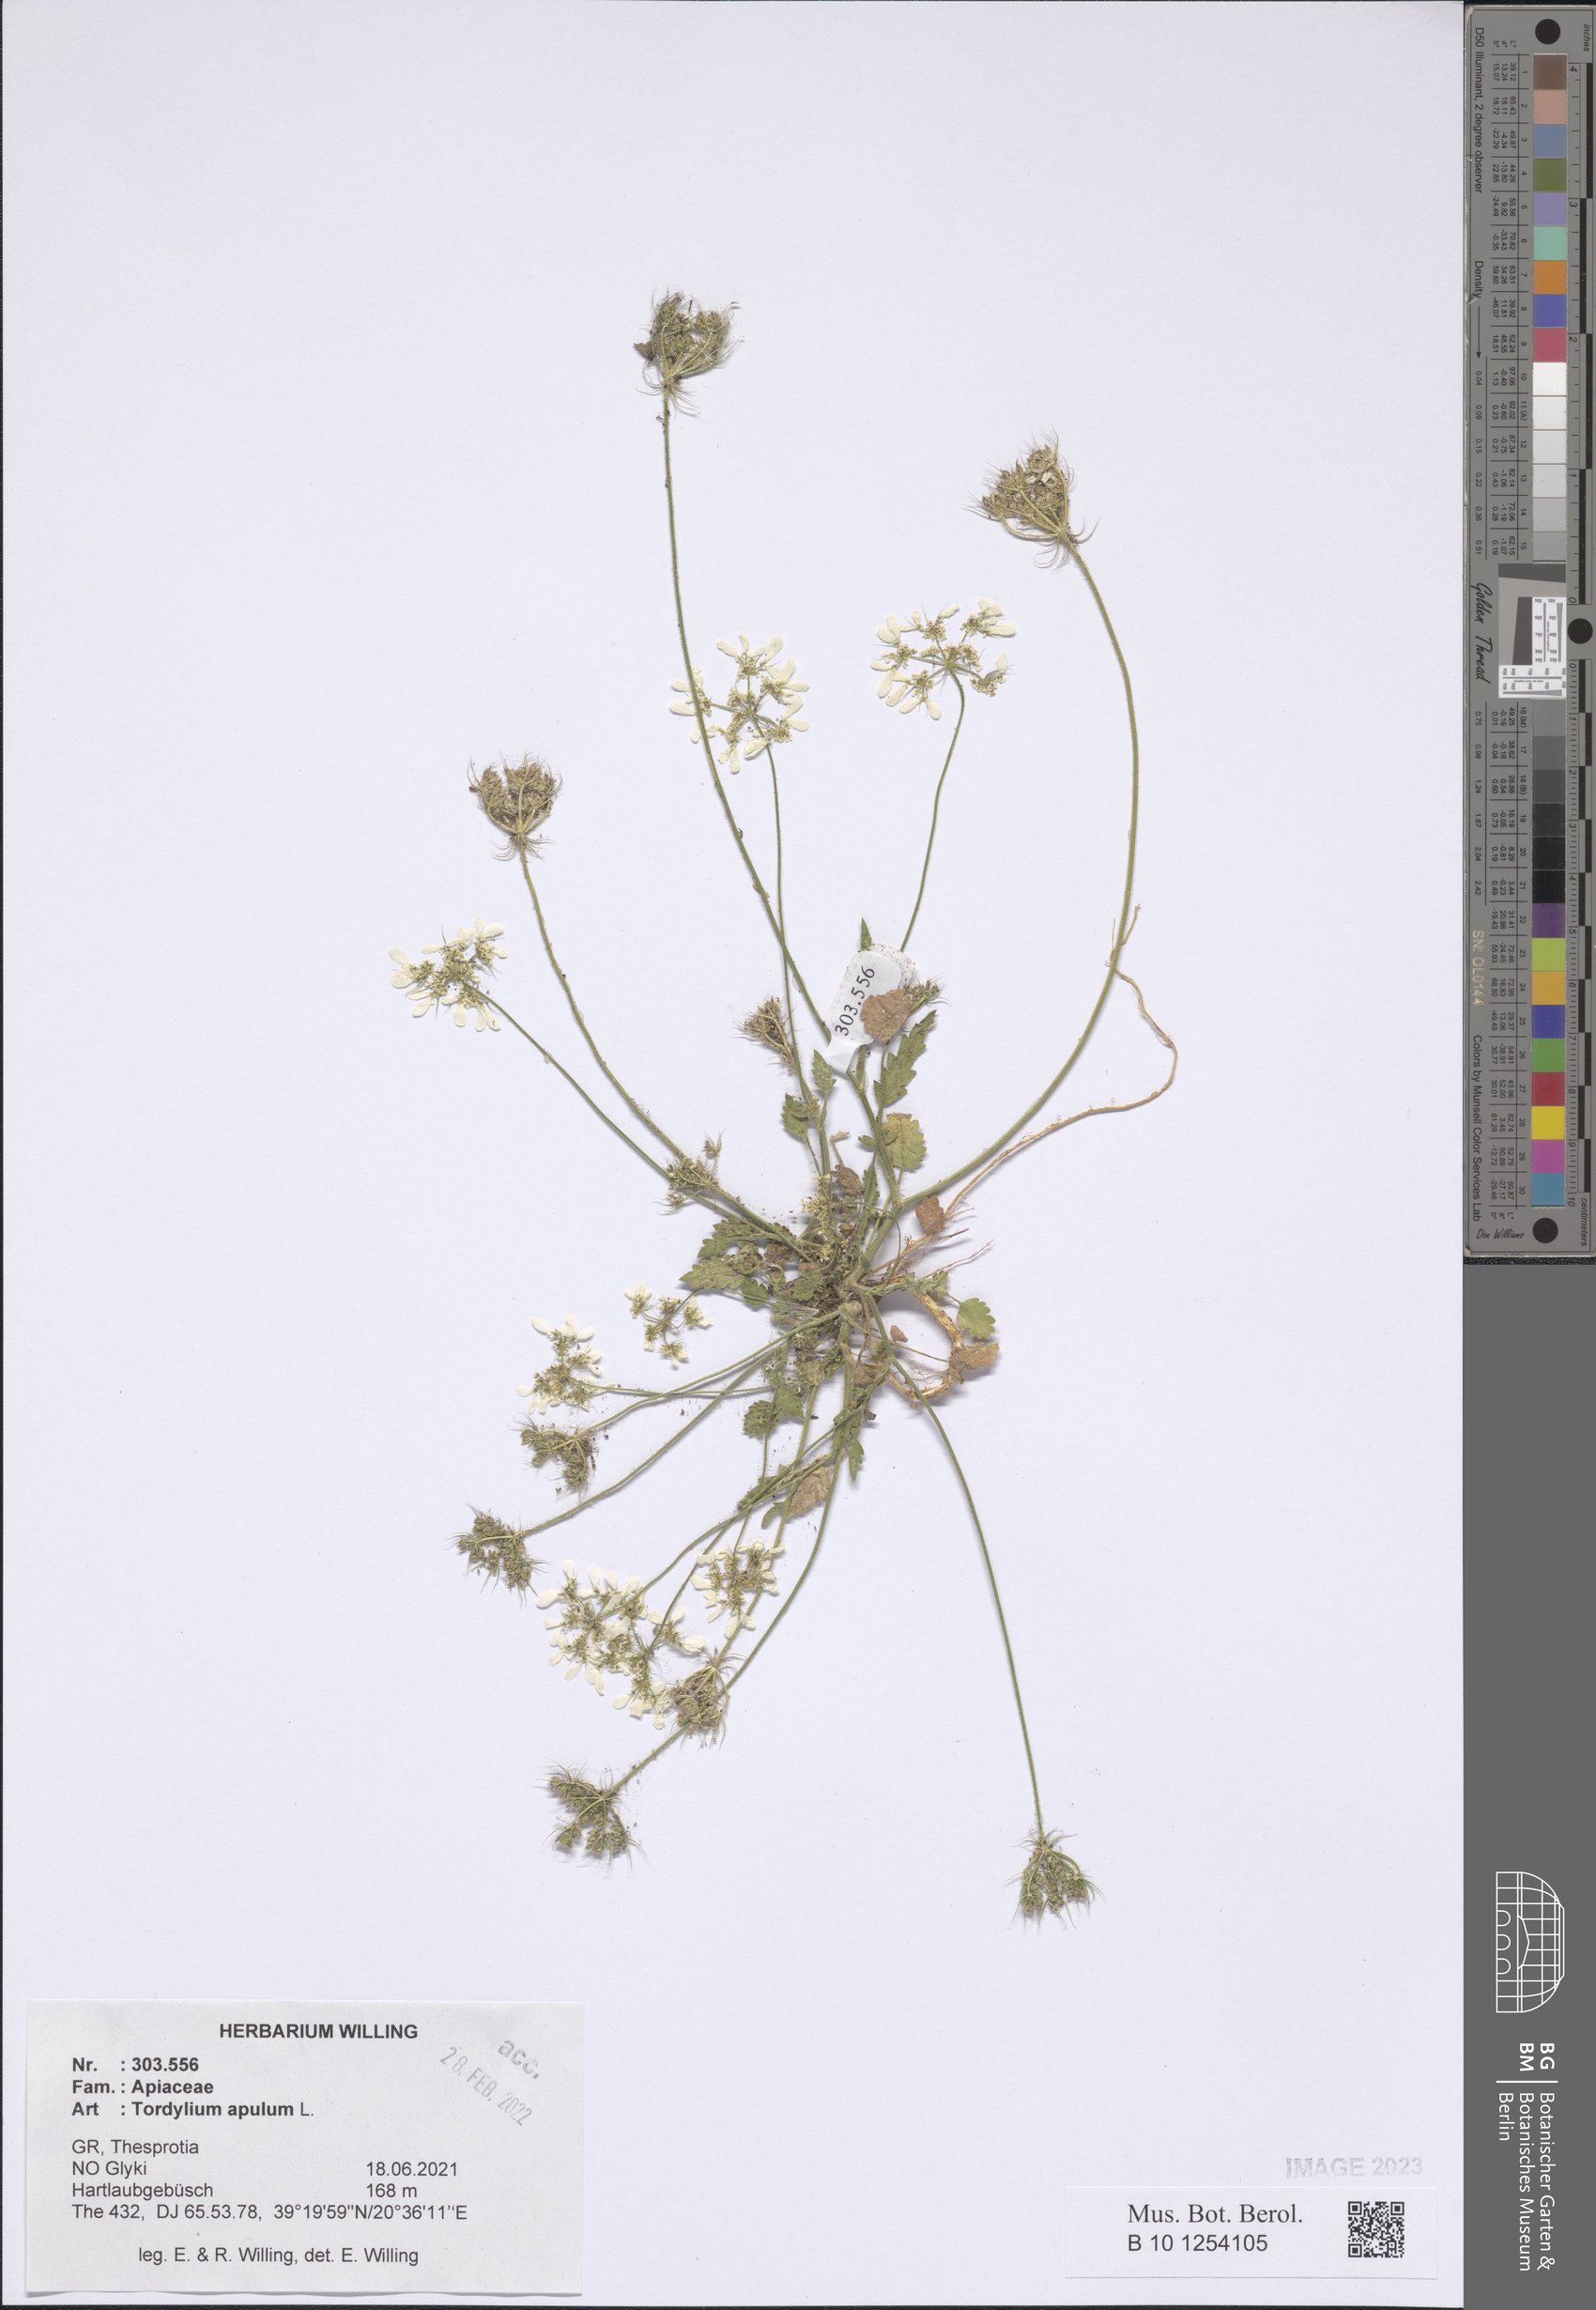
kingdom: Plantae
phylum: Tracheophyta
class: Magnoliopsida
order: Apiales
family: Apiaceae
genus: Tordylium
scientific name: Tordylium apulum
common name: Mediterranean hartwort
